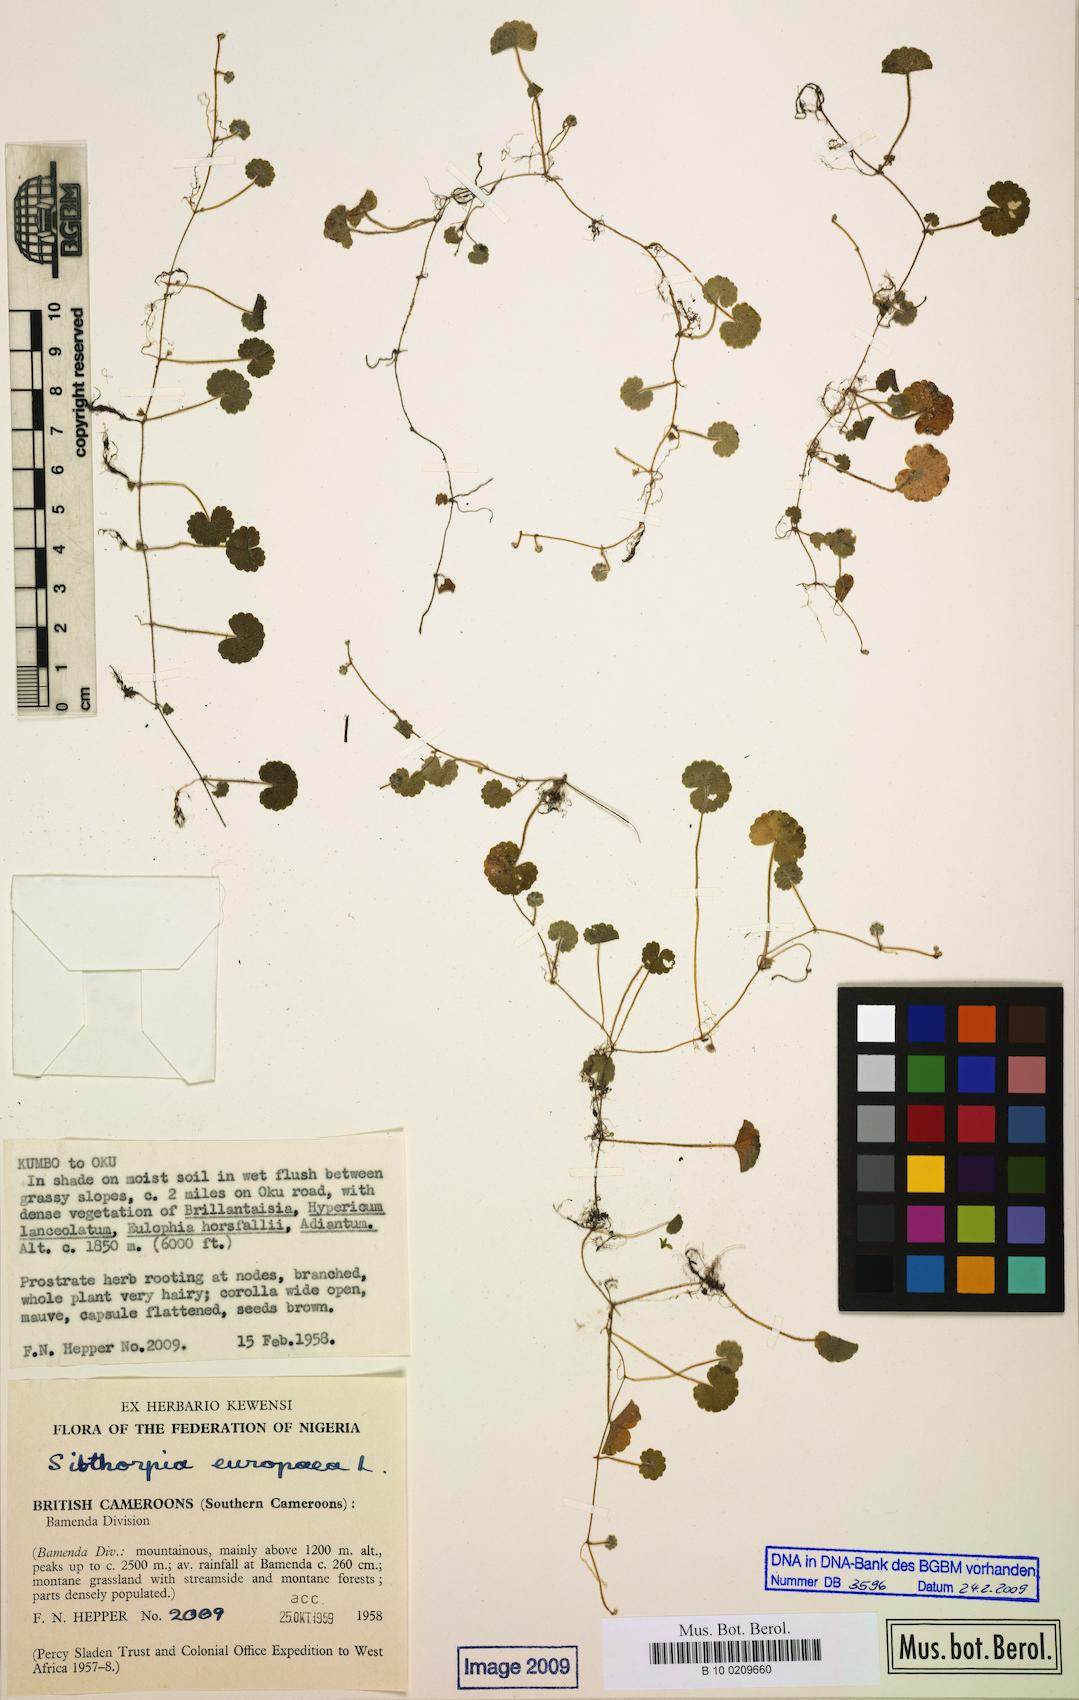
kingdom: Plantae
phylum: Tracheophyta
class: Magnoliopsida
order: Lamiales
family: Plantaginaceae
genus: Sibthorpia
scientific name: Sibthorpia europaea
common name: Cornish moneywort
